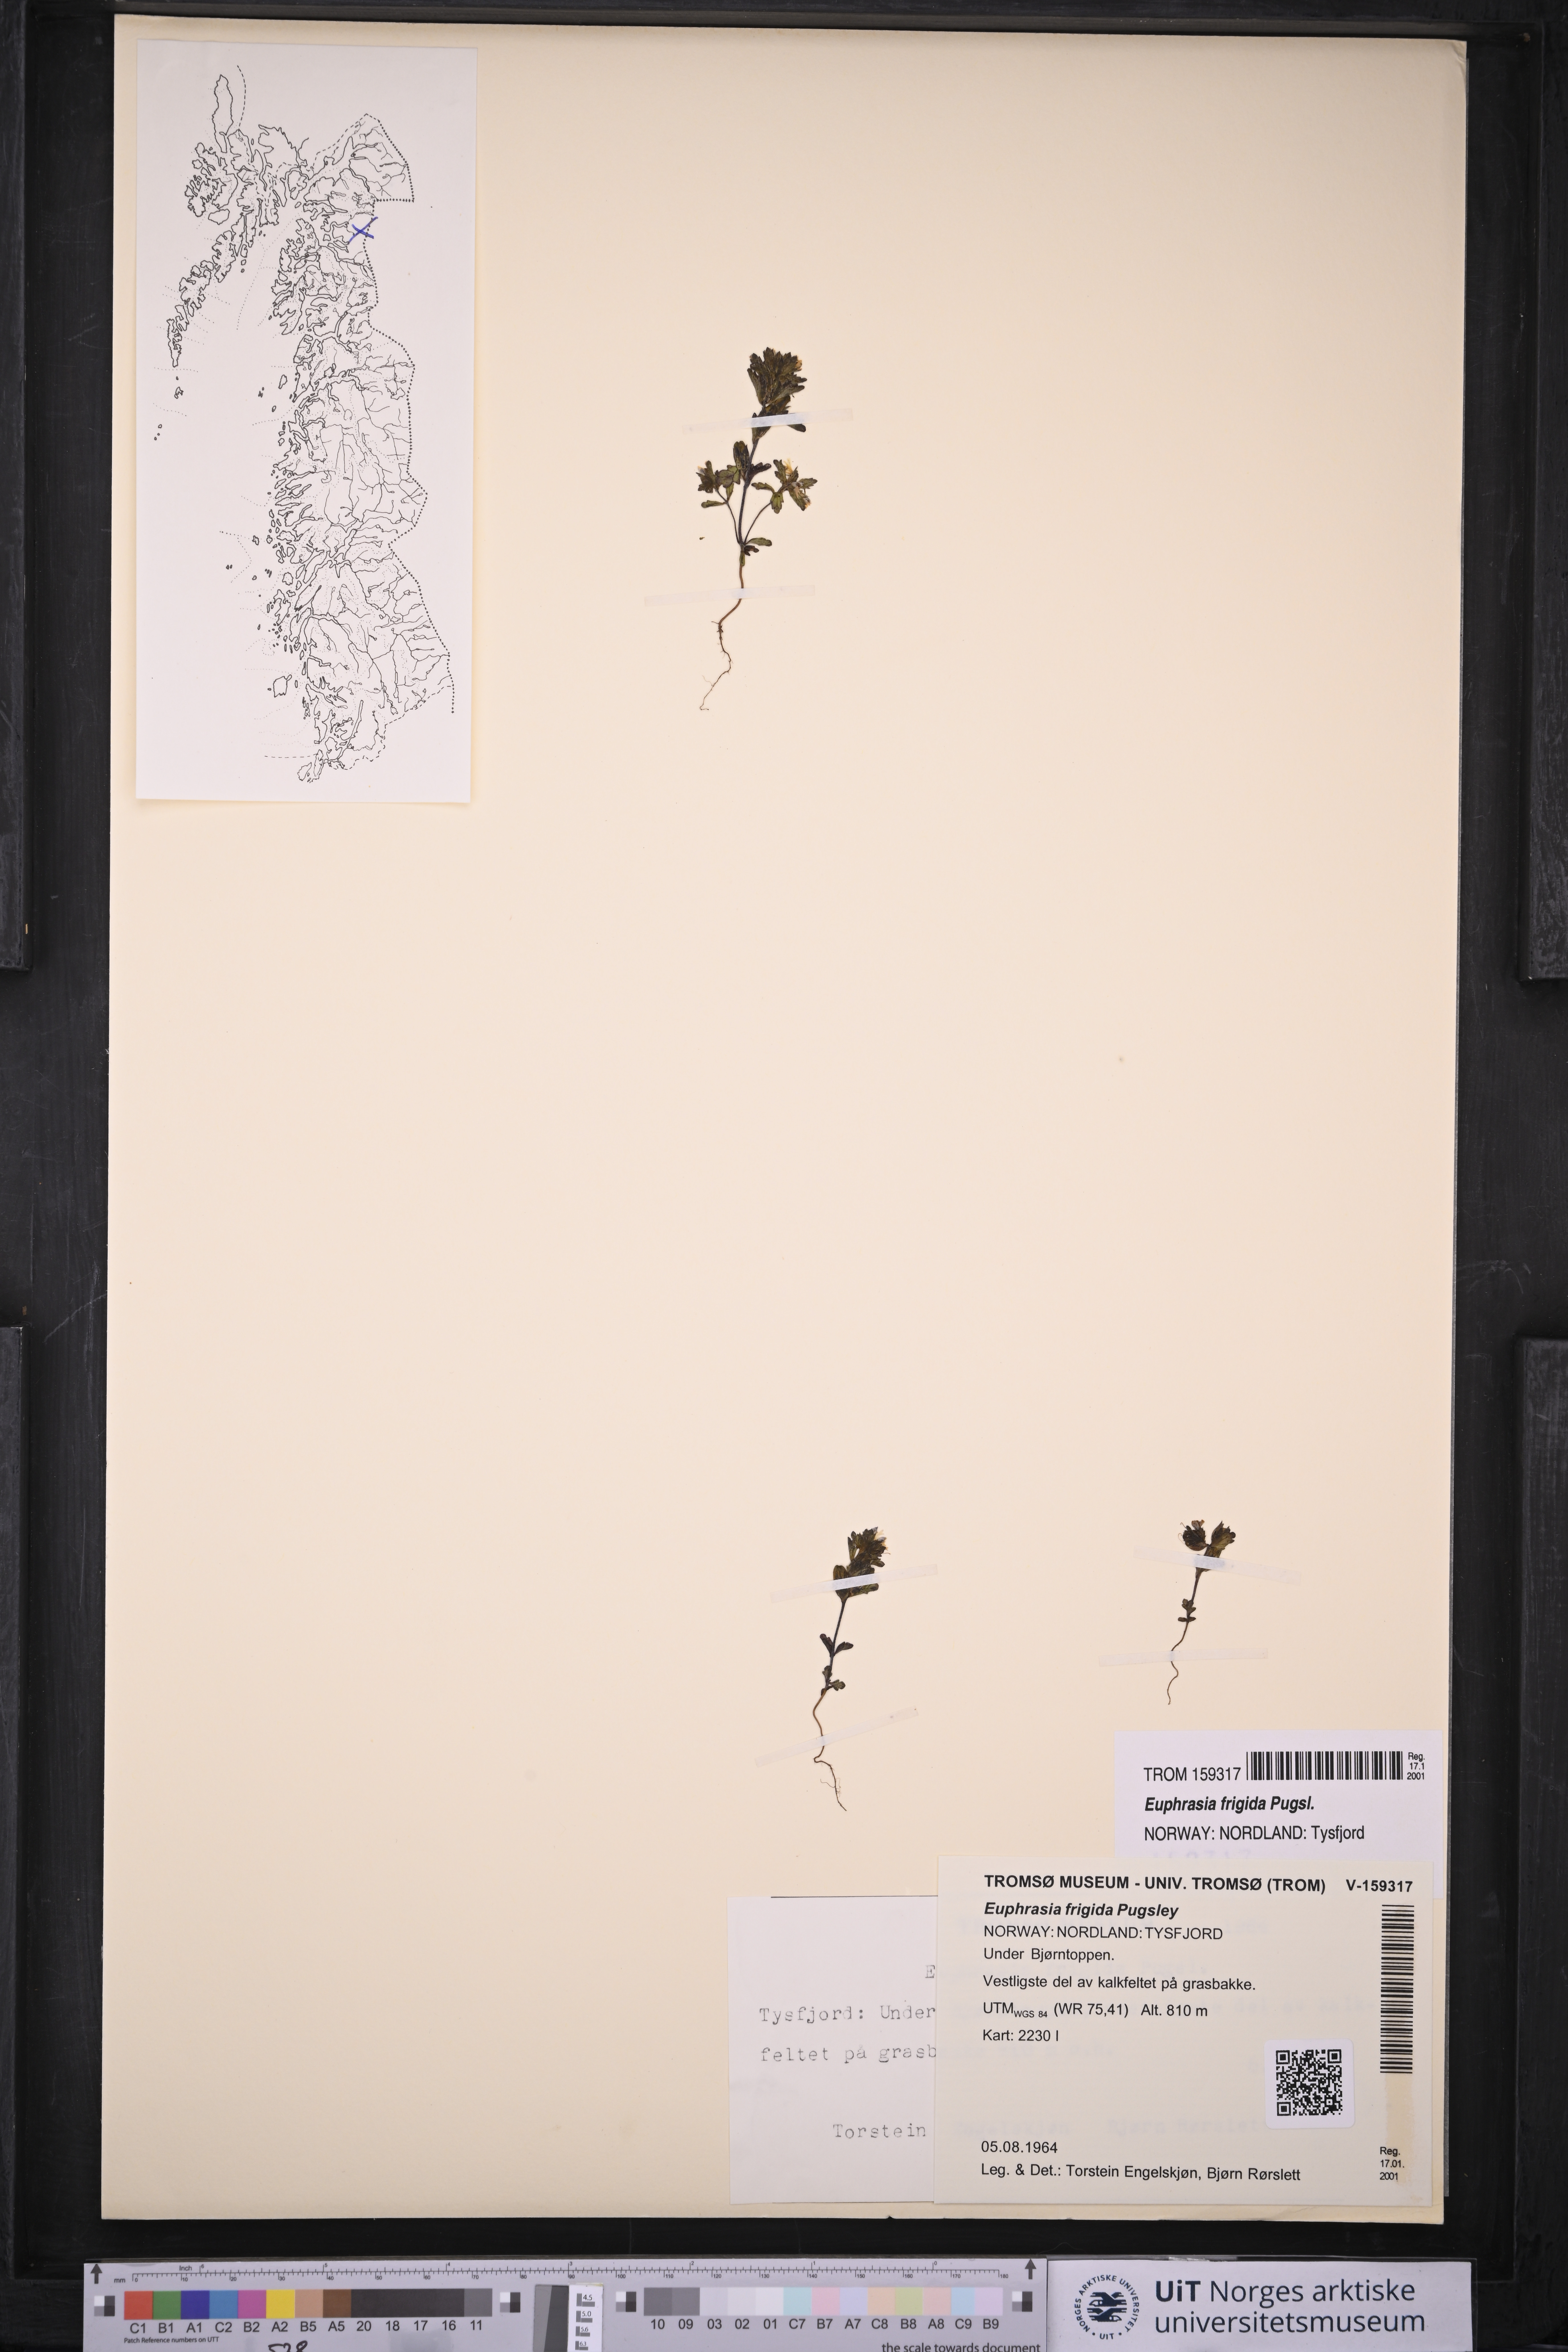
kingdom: Plantae
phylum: Tracheophyta
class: Magnoliopsida
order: Lamiales
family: Orobanchaceae
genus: Euphrasia
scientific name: Euphrasia frigida
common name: An eyebright
